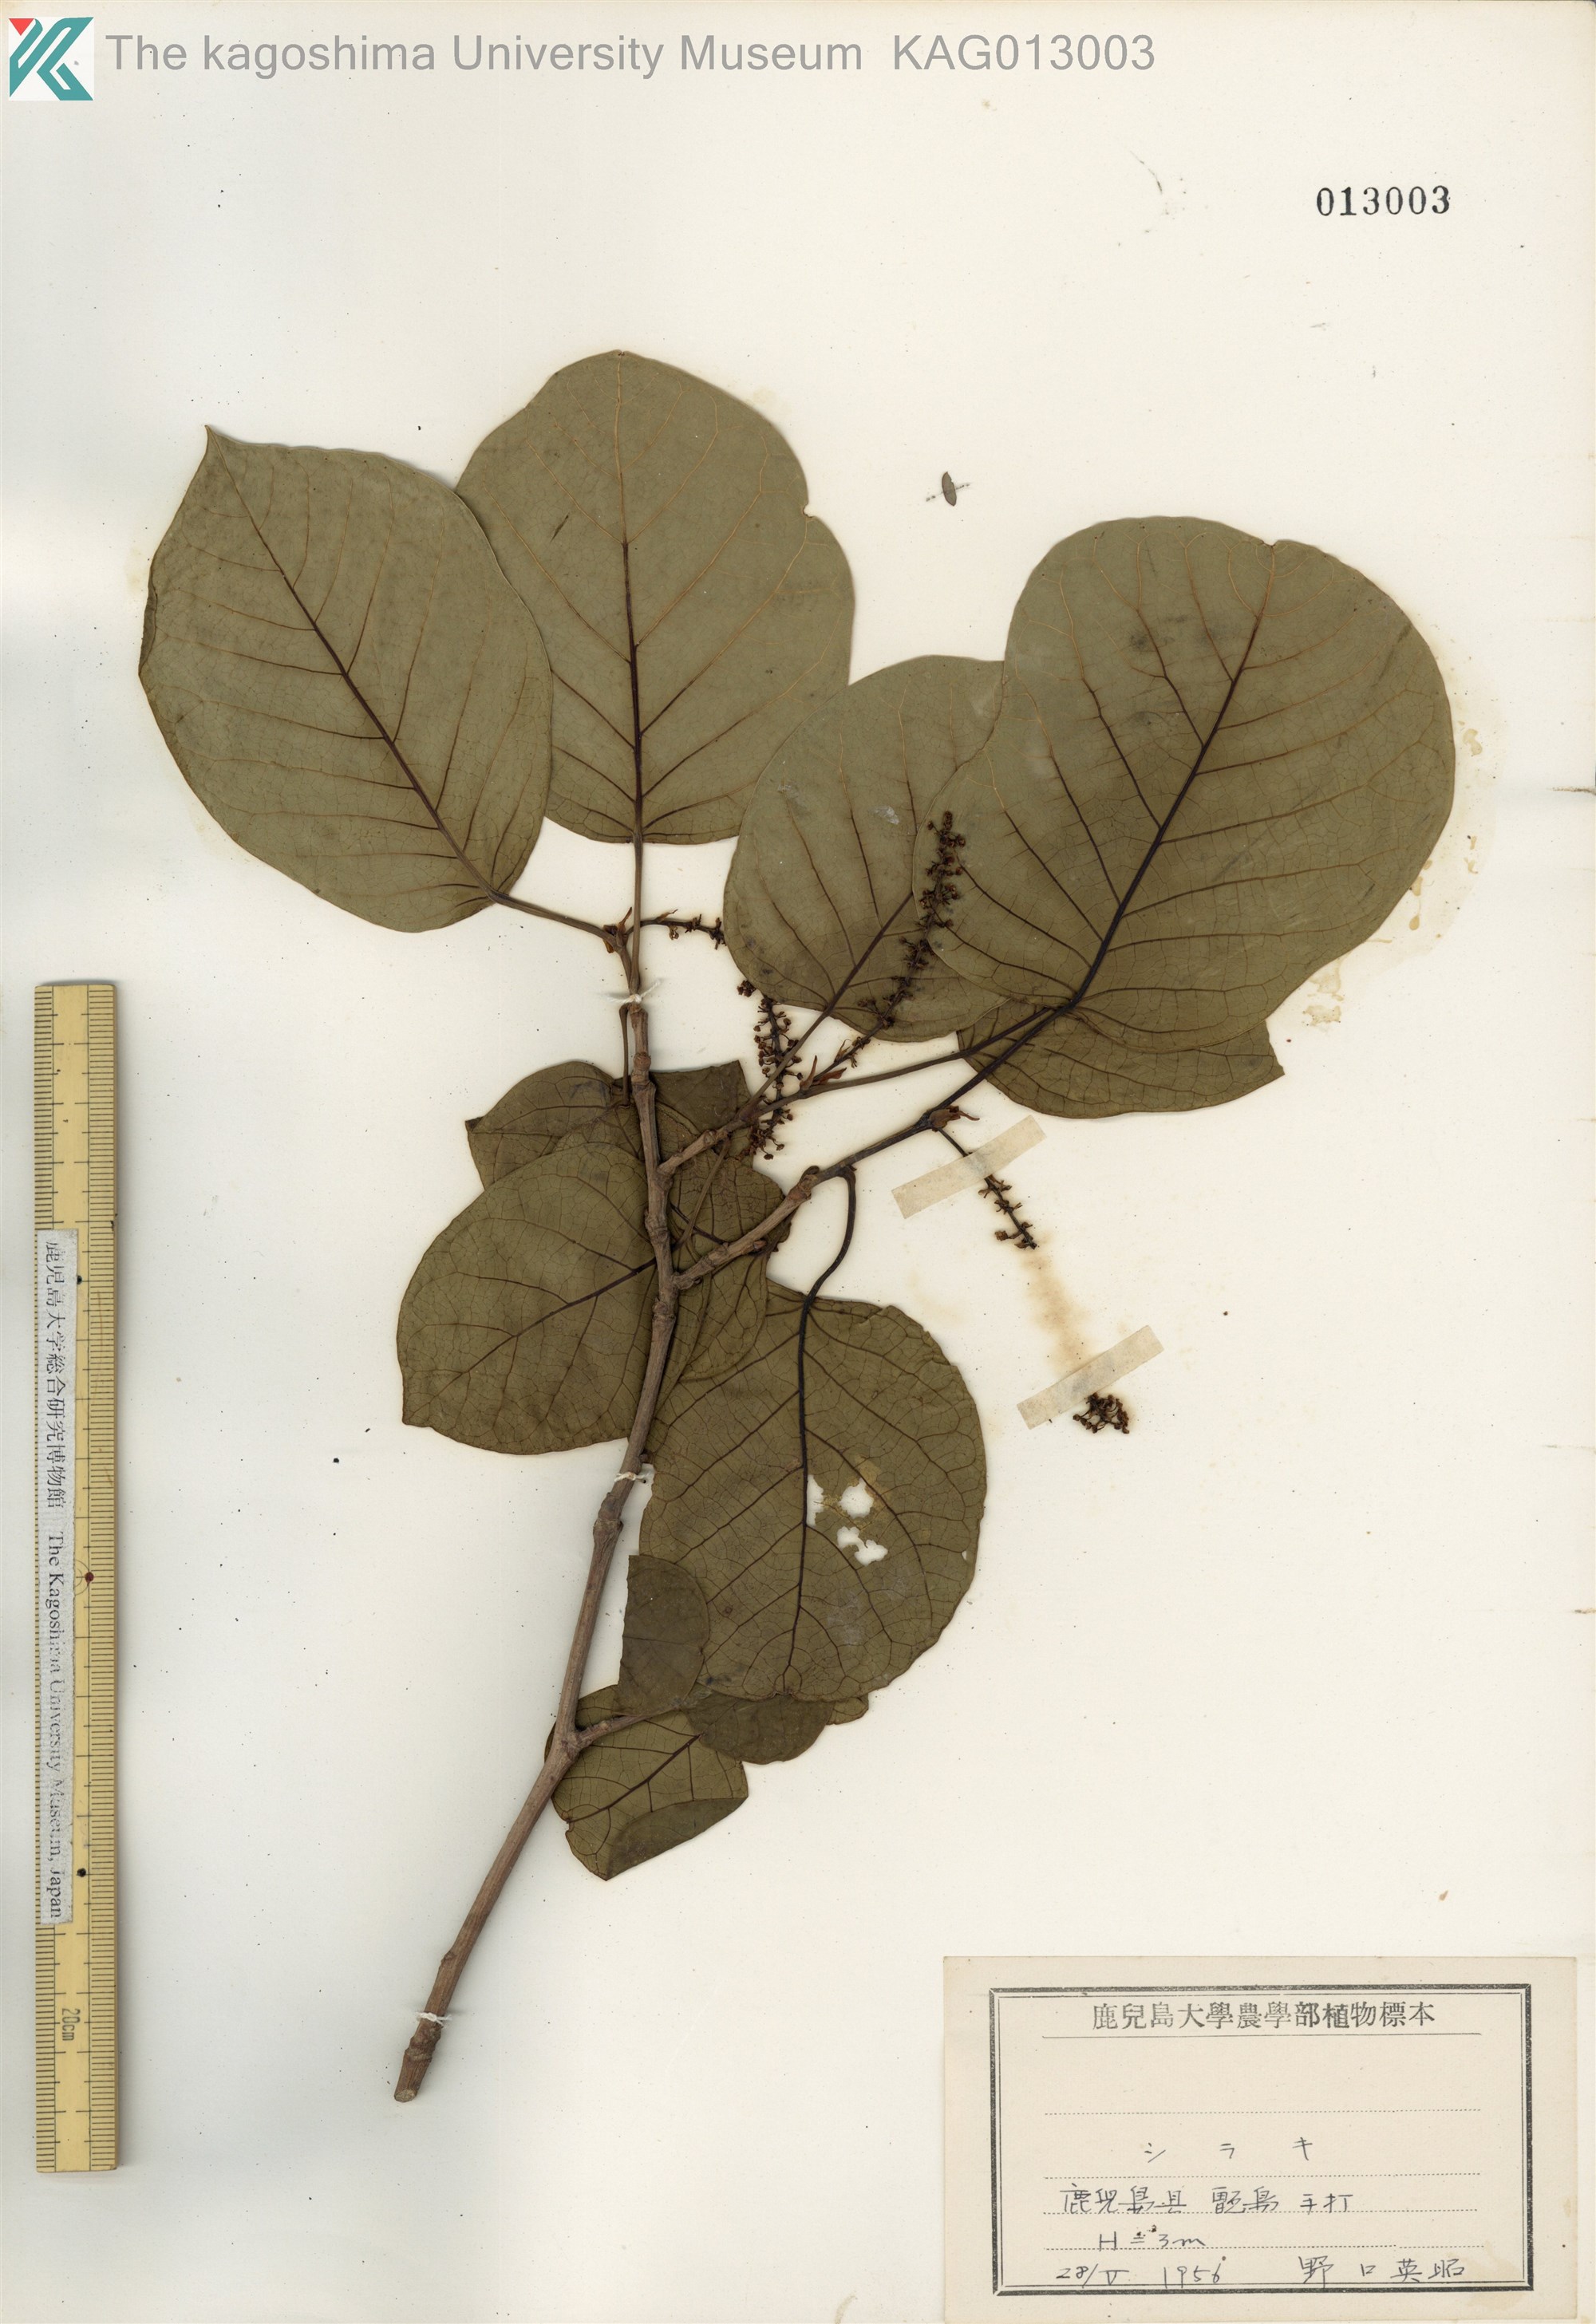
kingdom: Plantae
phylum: Tracheophyta
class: Magnoliopsida
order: Malpighiales
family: Euphorbiaceae
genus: Neoshirakia
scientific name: Neoshirakia japonica
